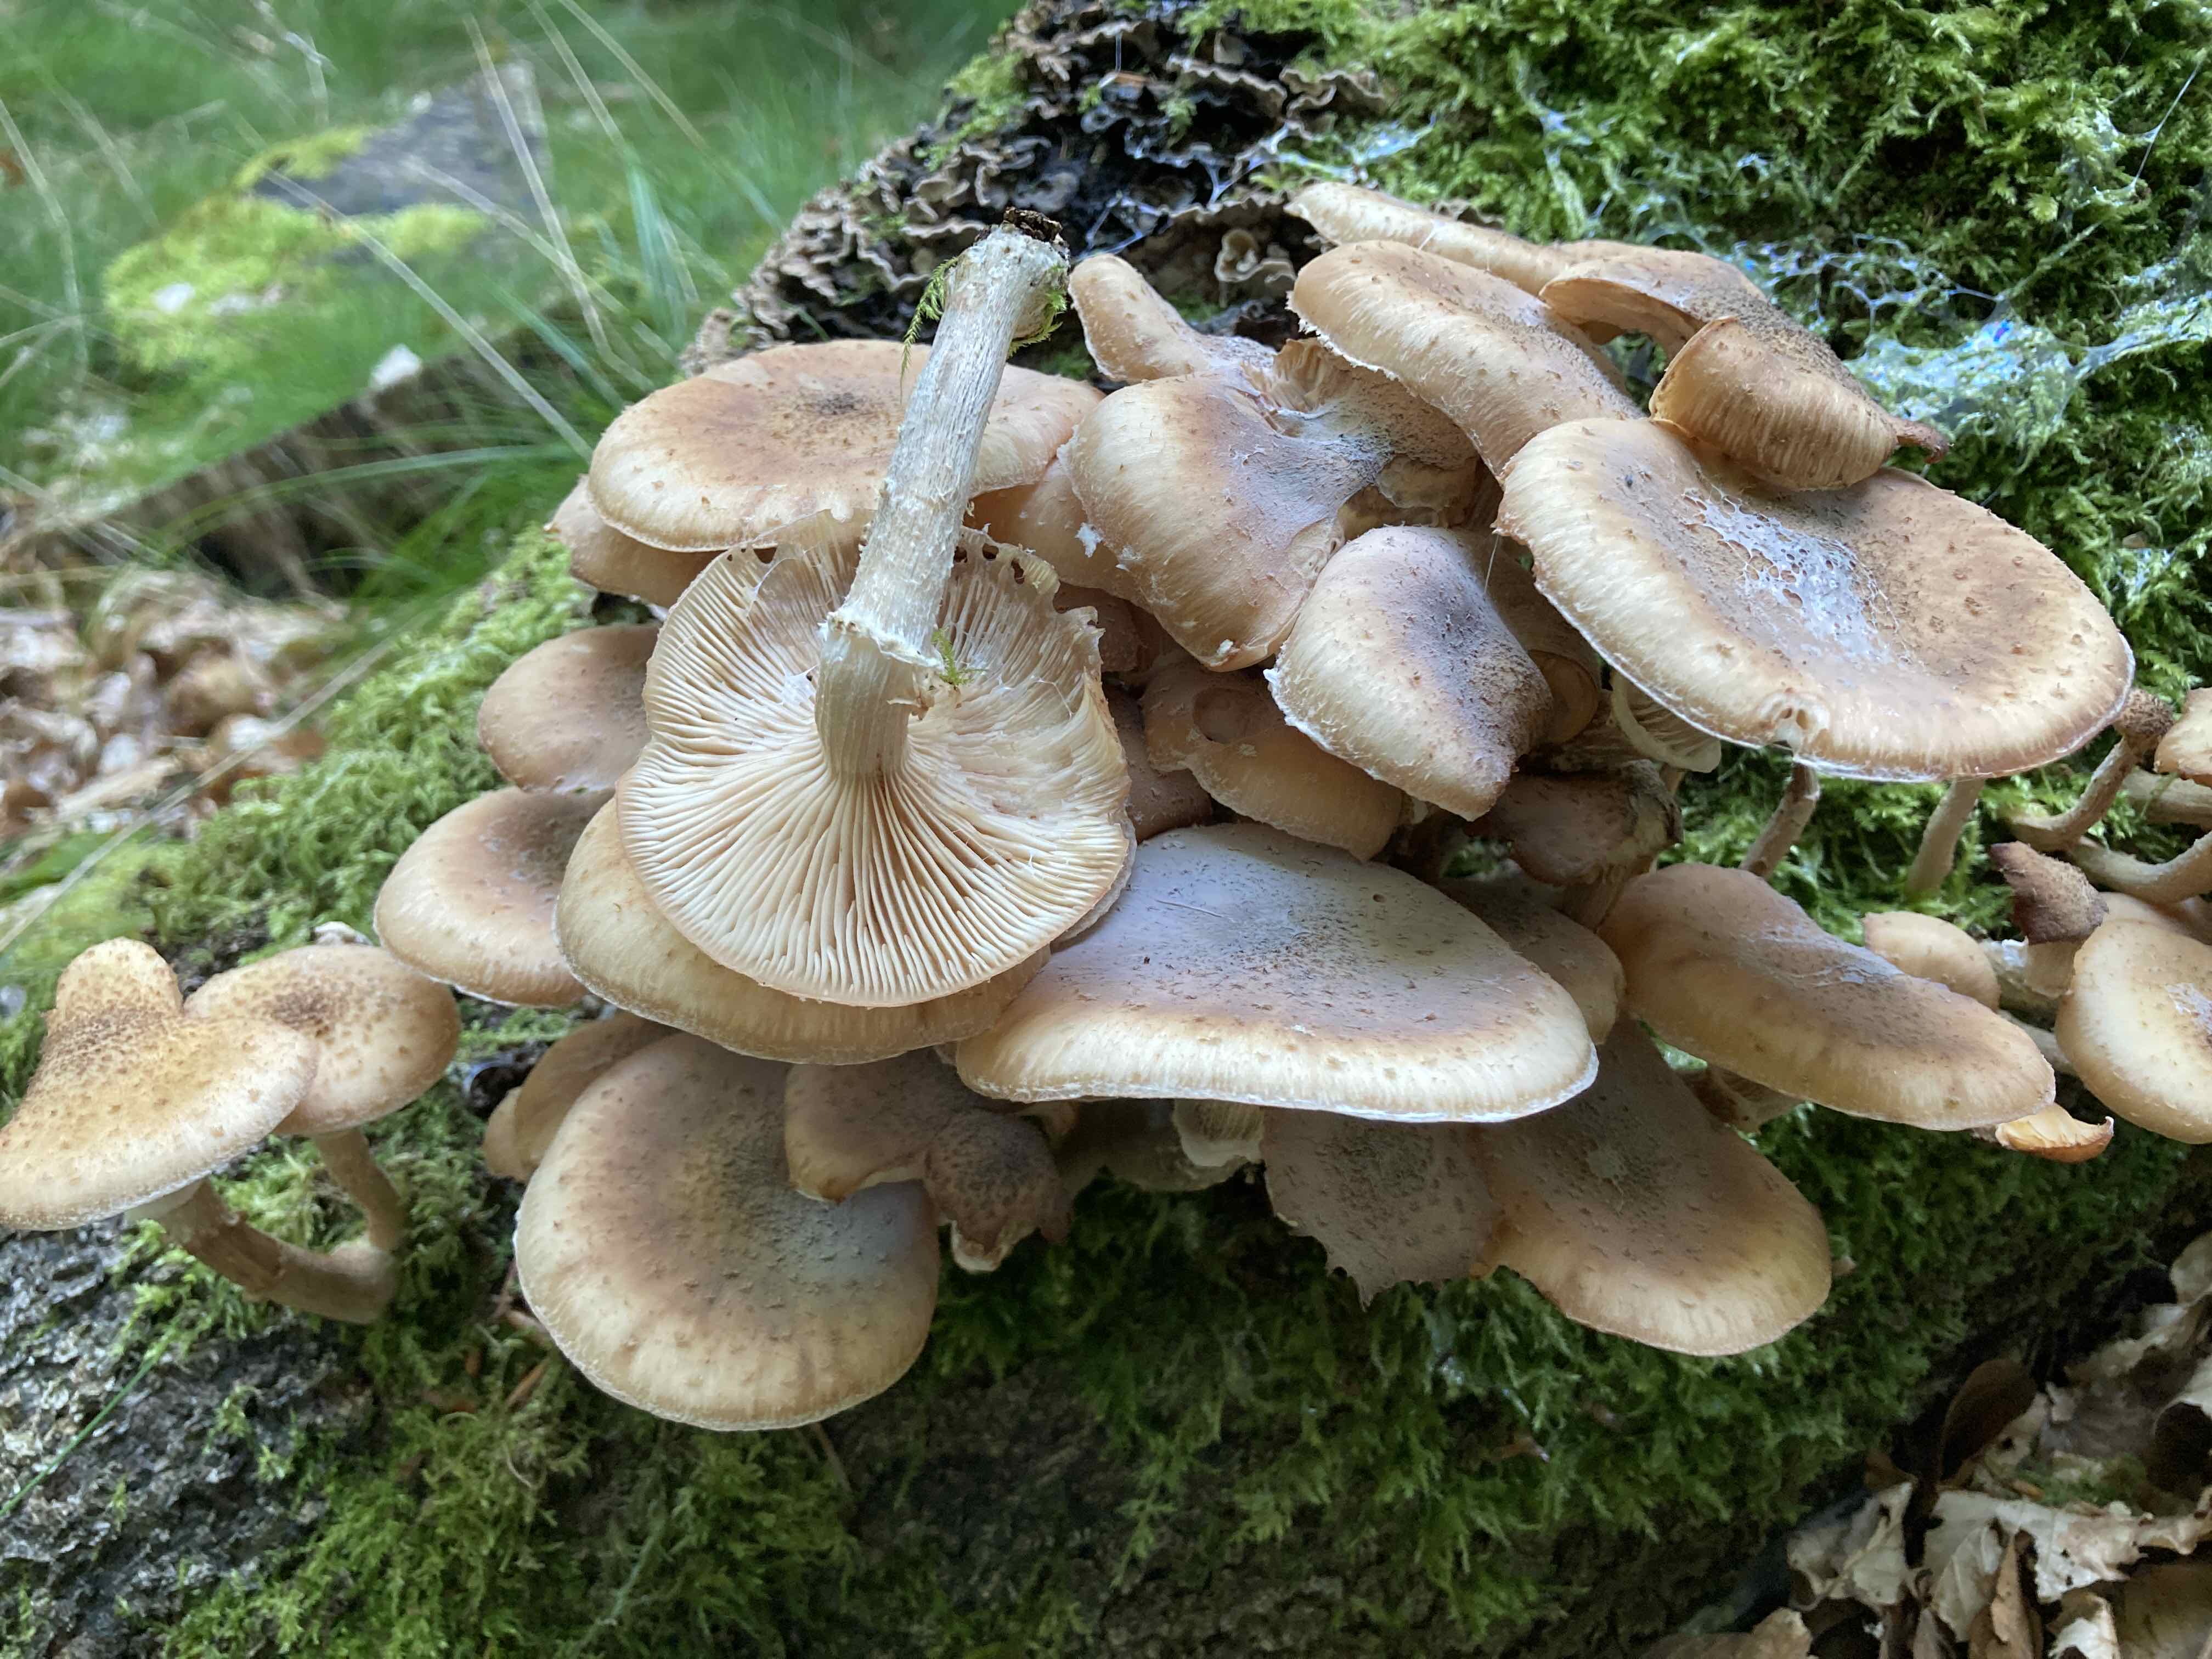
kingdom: Fungi
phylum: Basidiomycota
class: Agaricomycetes
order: Agaricales
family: Physalacriaceae
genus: Armillaria
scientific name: Armillaria borealis
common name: nordlig honningsvamp
